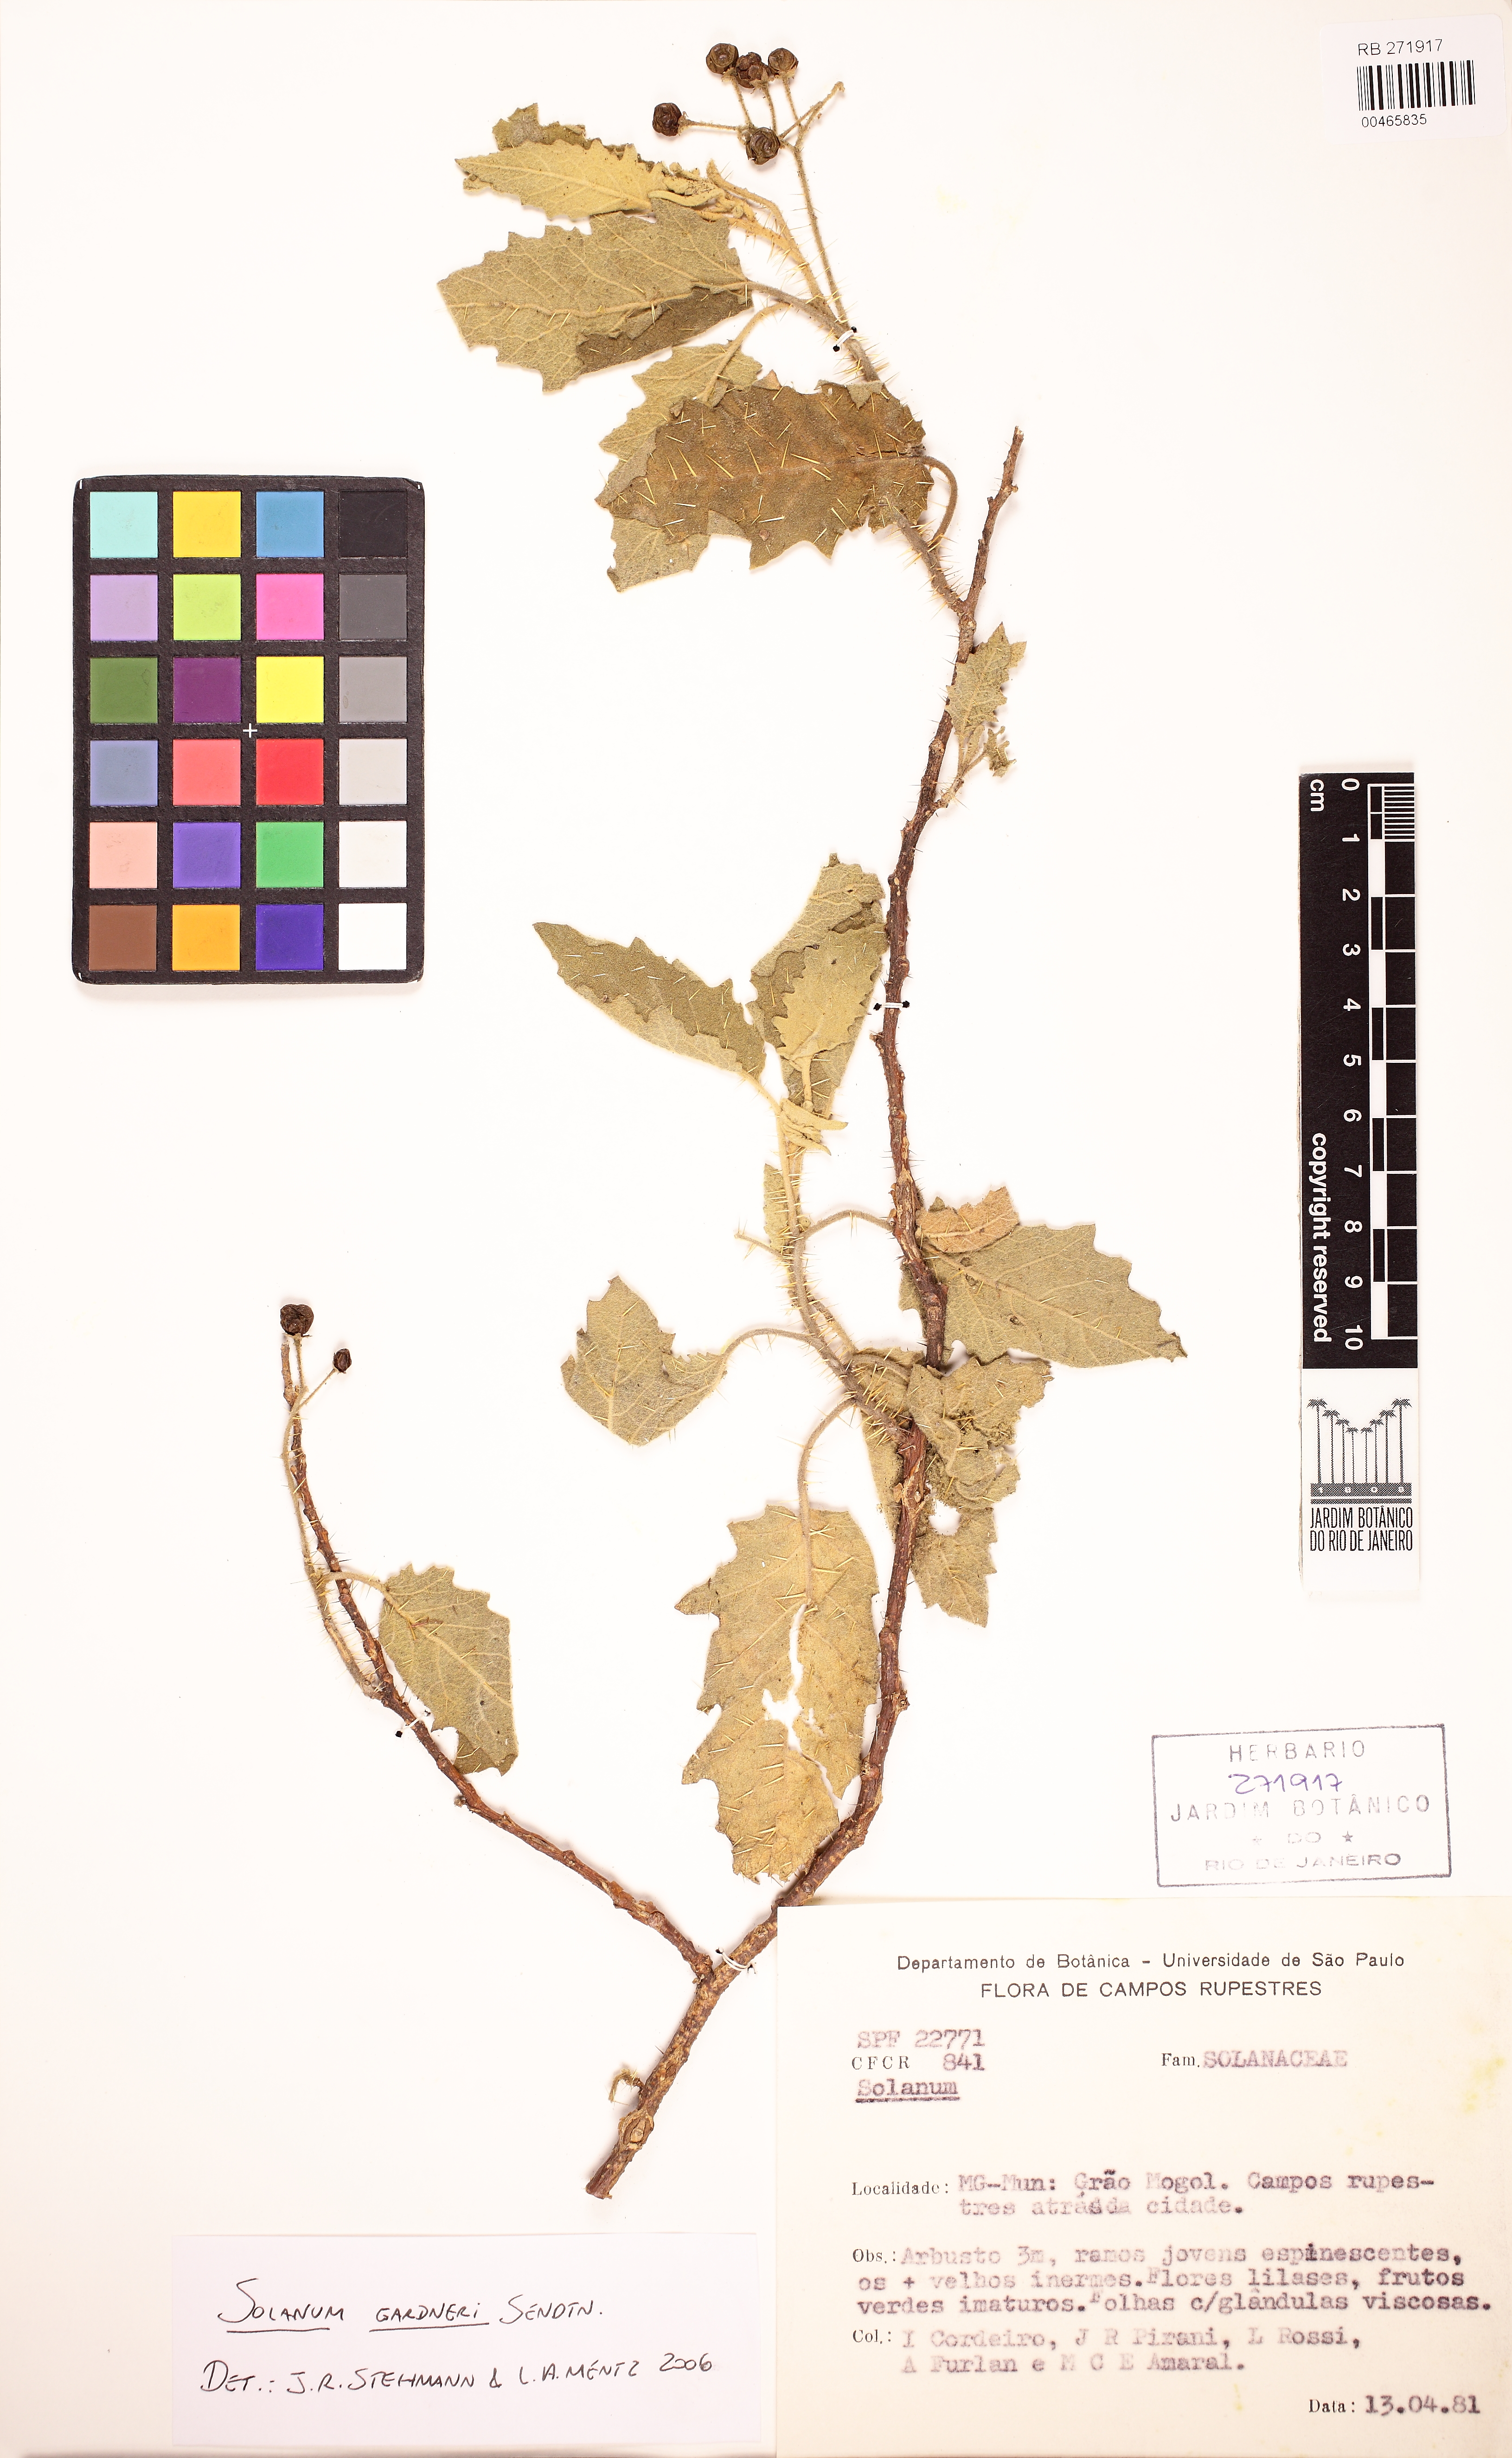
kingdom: Plantae
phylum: Tracheophyta
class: Magnoliopsida
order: Solanales
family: Solanaceae
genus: Solanum
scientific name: Solanum gardneri
